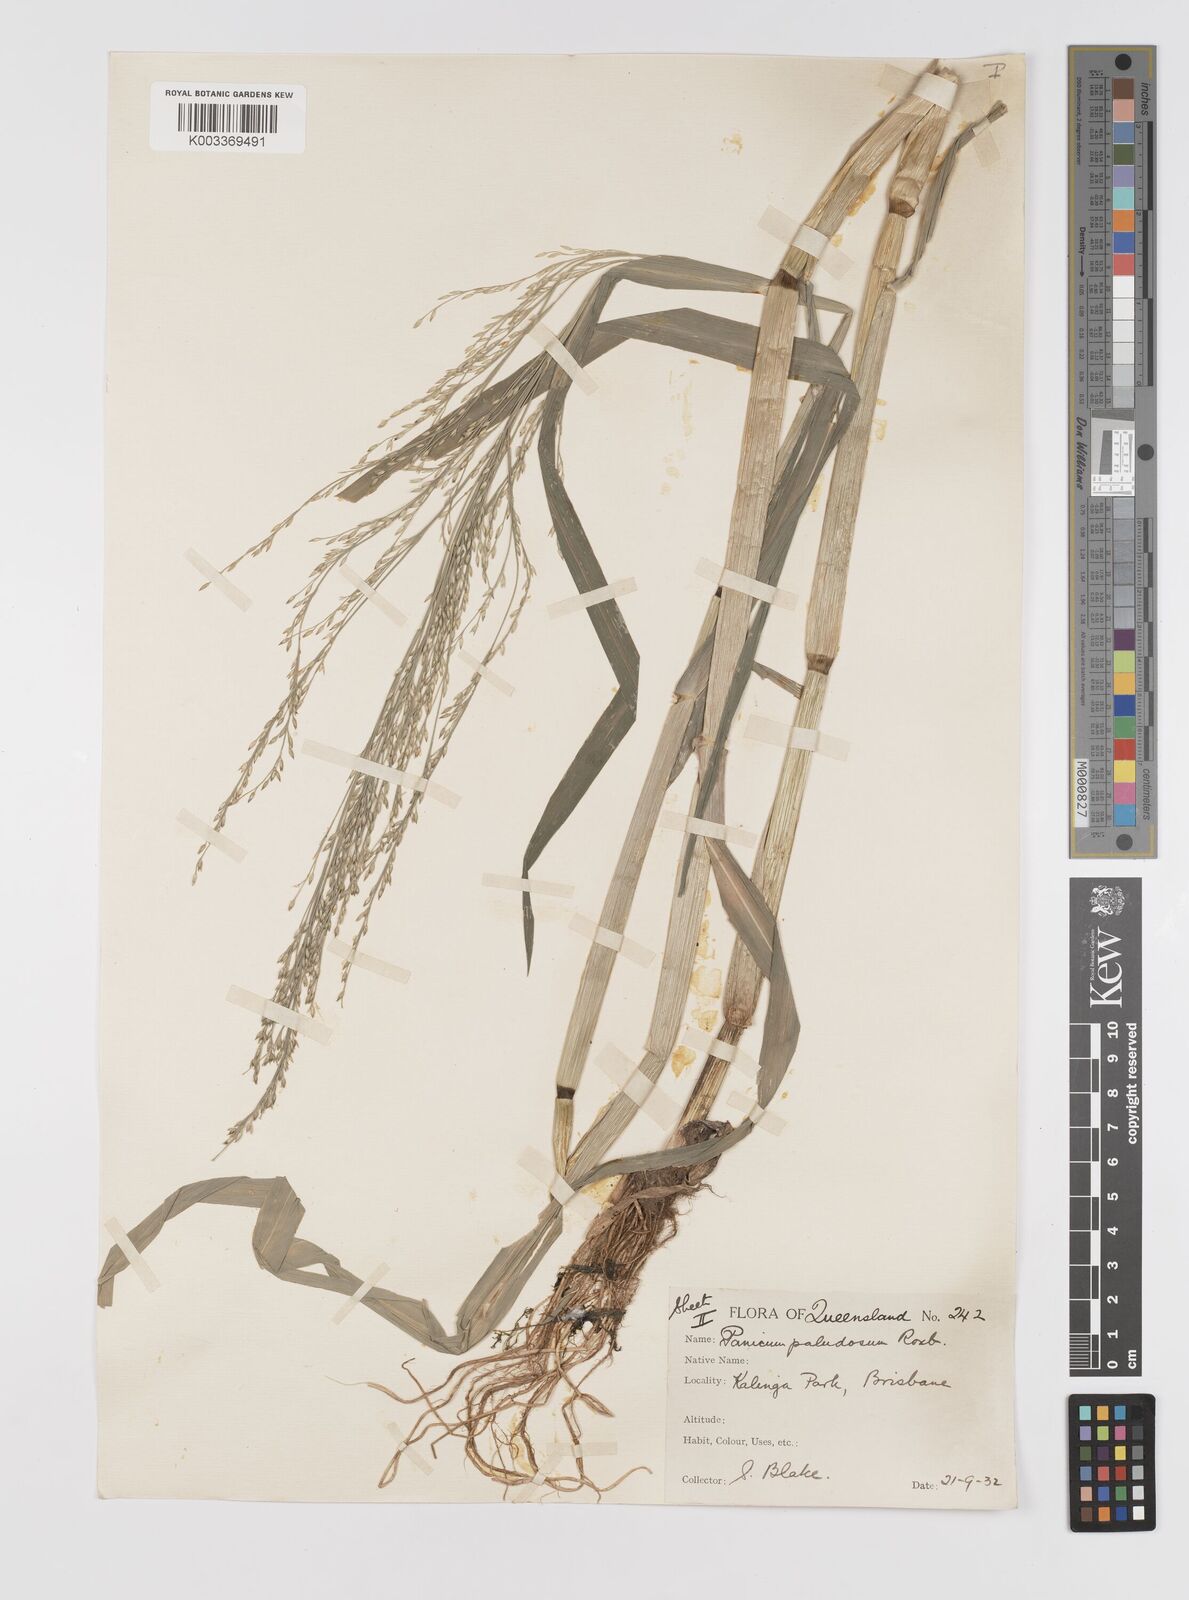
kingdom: Plantae
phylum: Tracheophyta
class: Liliopsida
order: Poales
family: Poaceae
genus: Louisiella
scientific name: Louisiella paludosa
